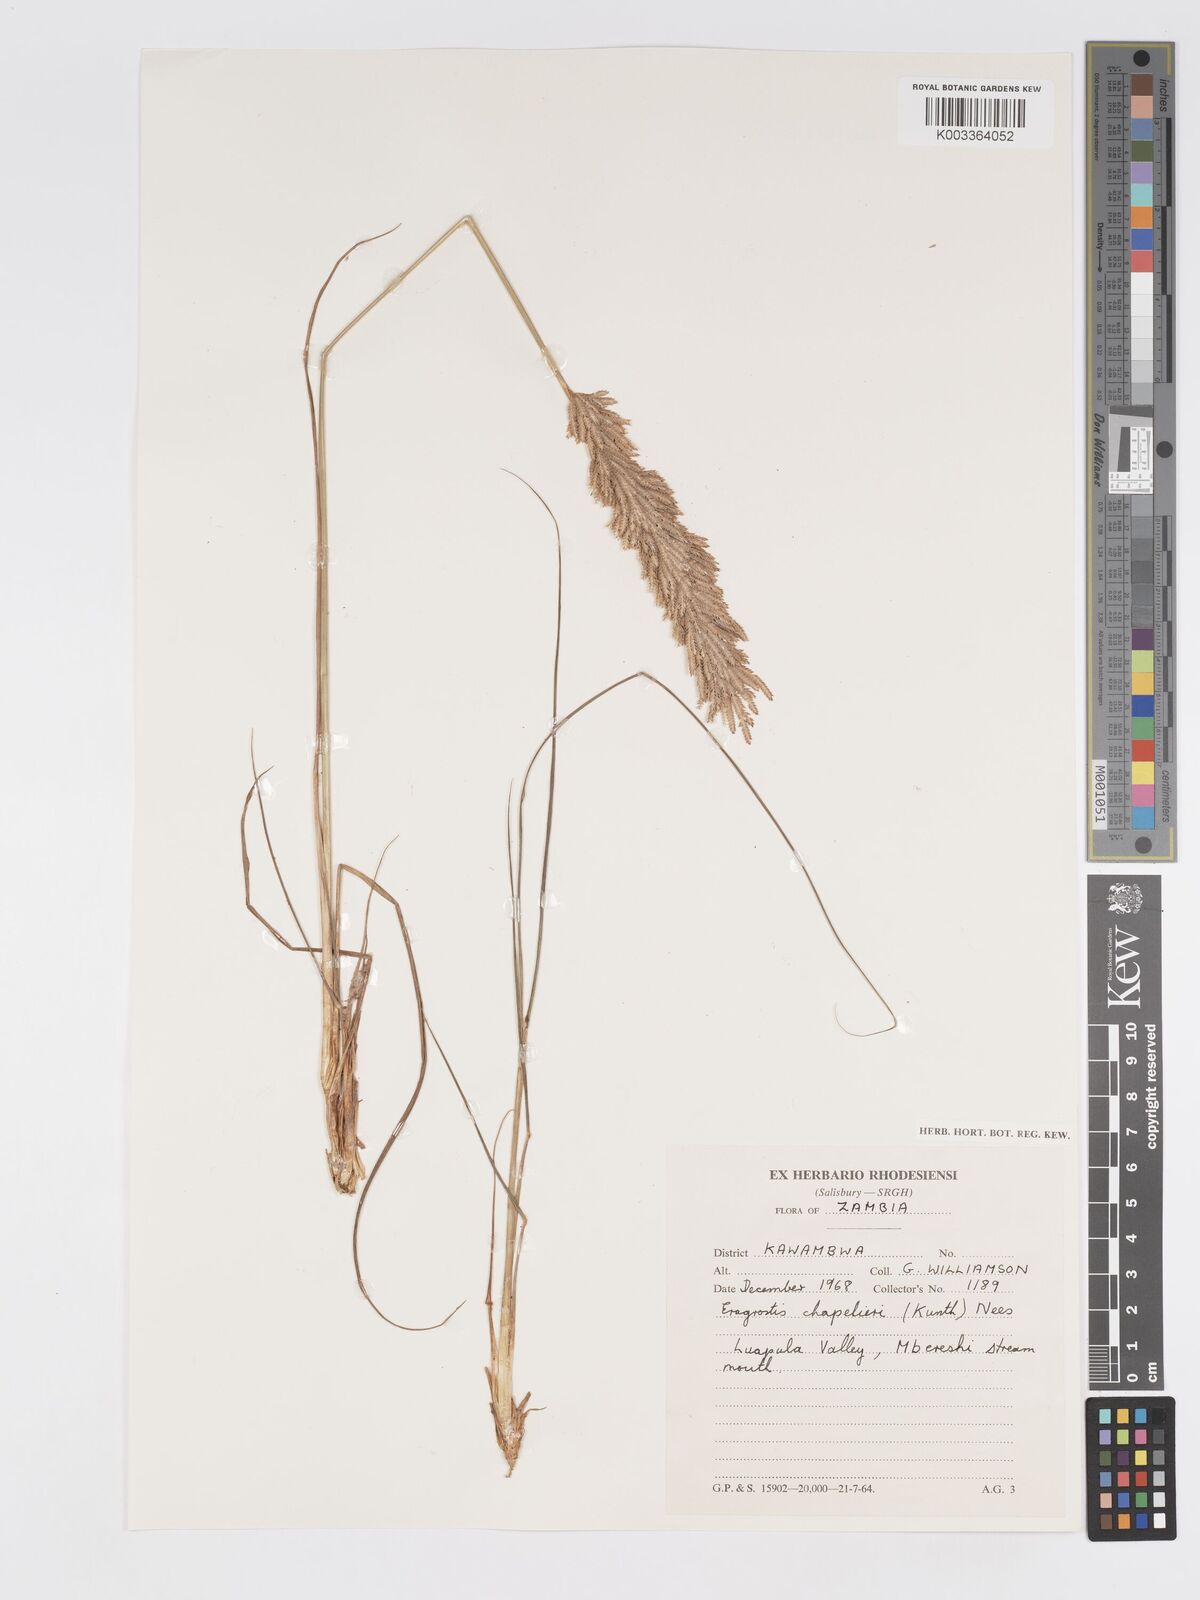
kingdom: Plantae
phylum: Tracheophyta
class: Liliopsida
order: Poales
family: Poaceae
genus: Eragrostis
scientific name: Eragrostis chapelieri
